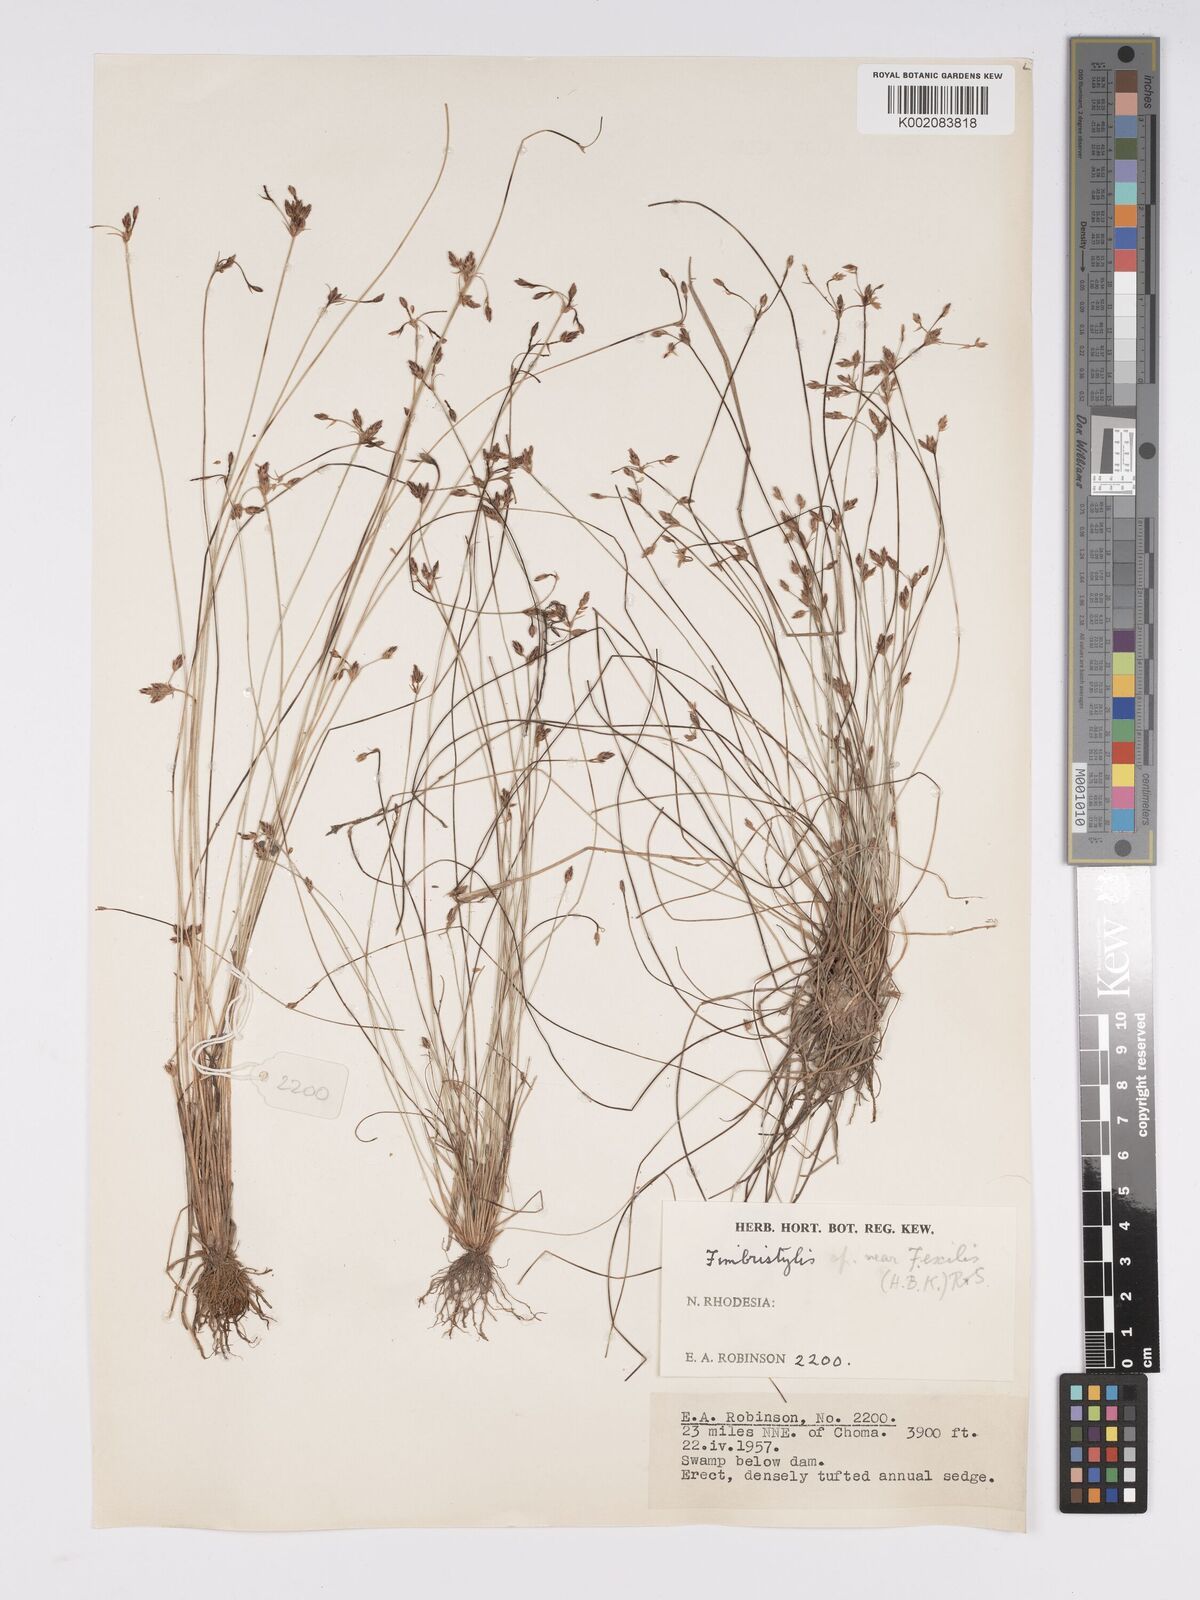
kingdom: Plantae
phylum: Tracheophyta
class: Liliopsida
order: Poales
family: Cyperaceae
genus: Bulbostylis
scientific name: Bulbostylis hispidula
